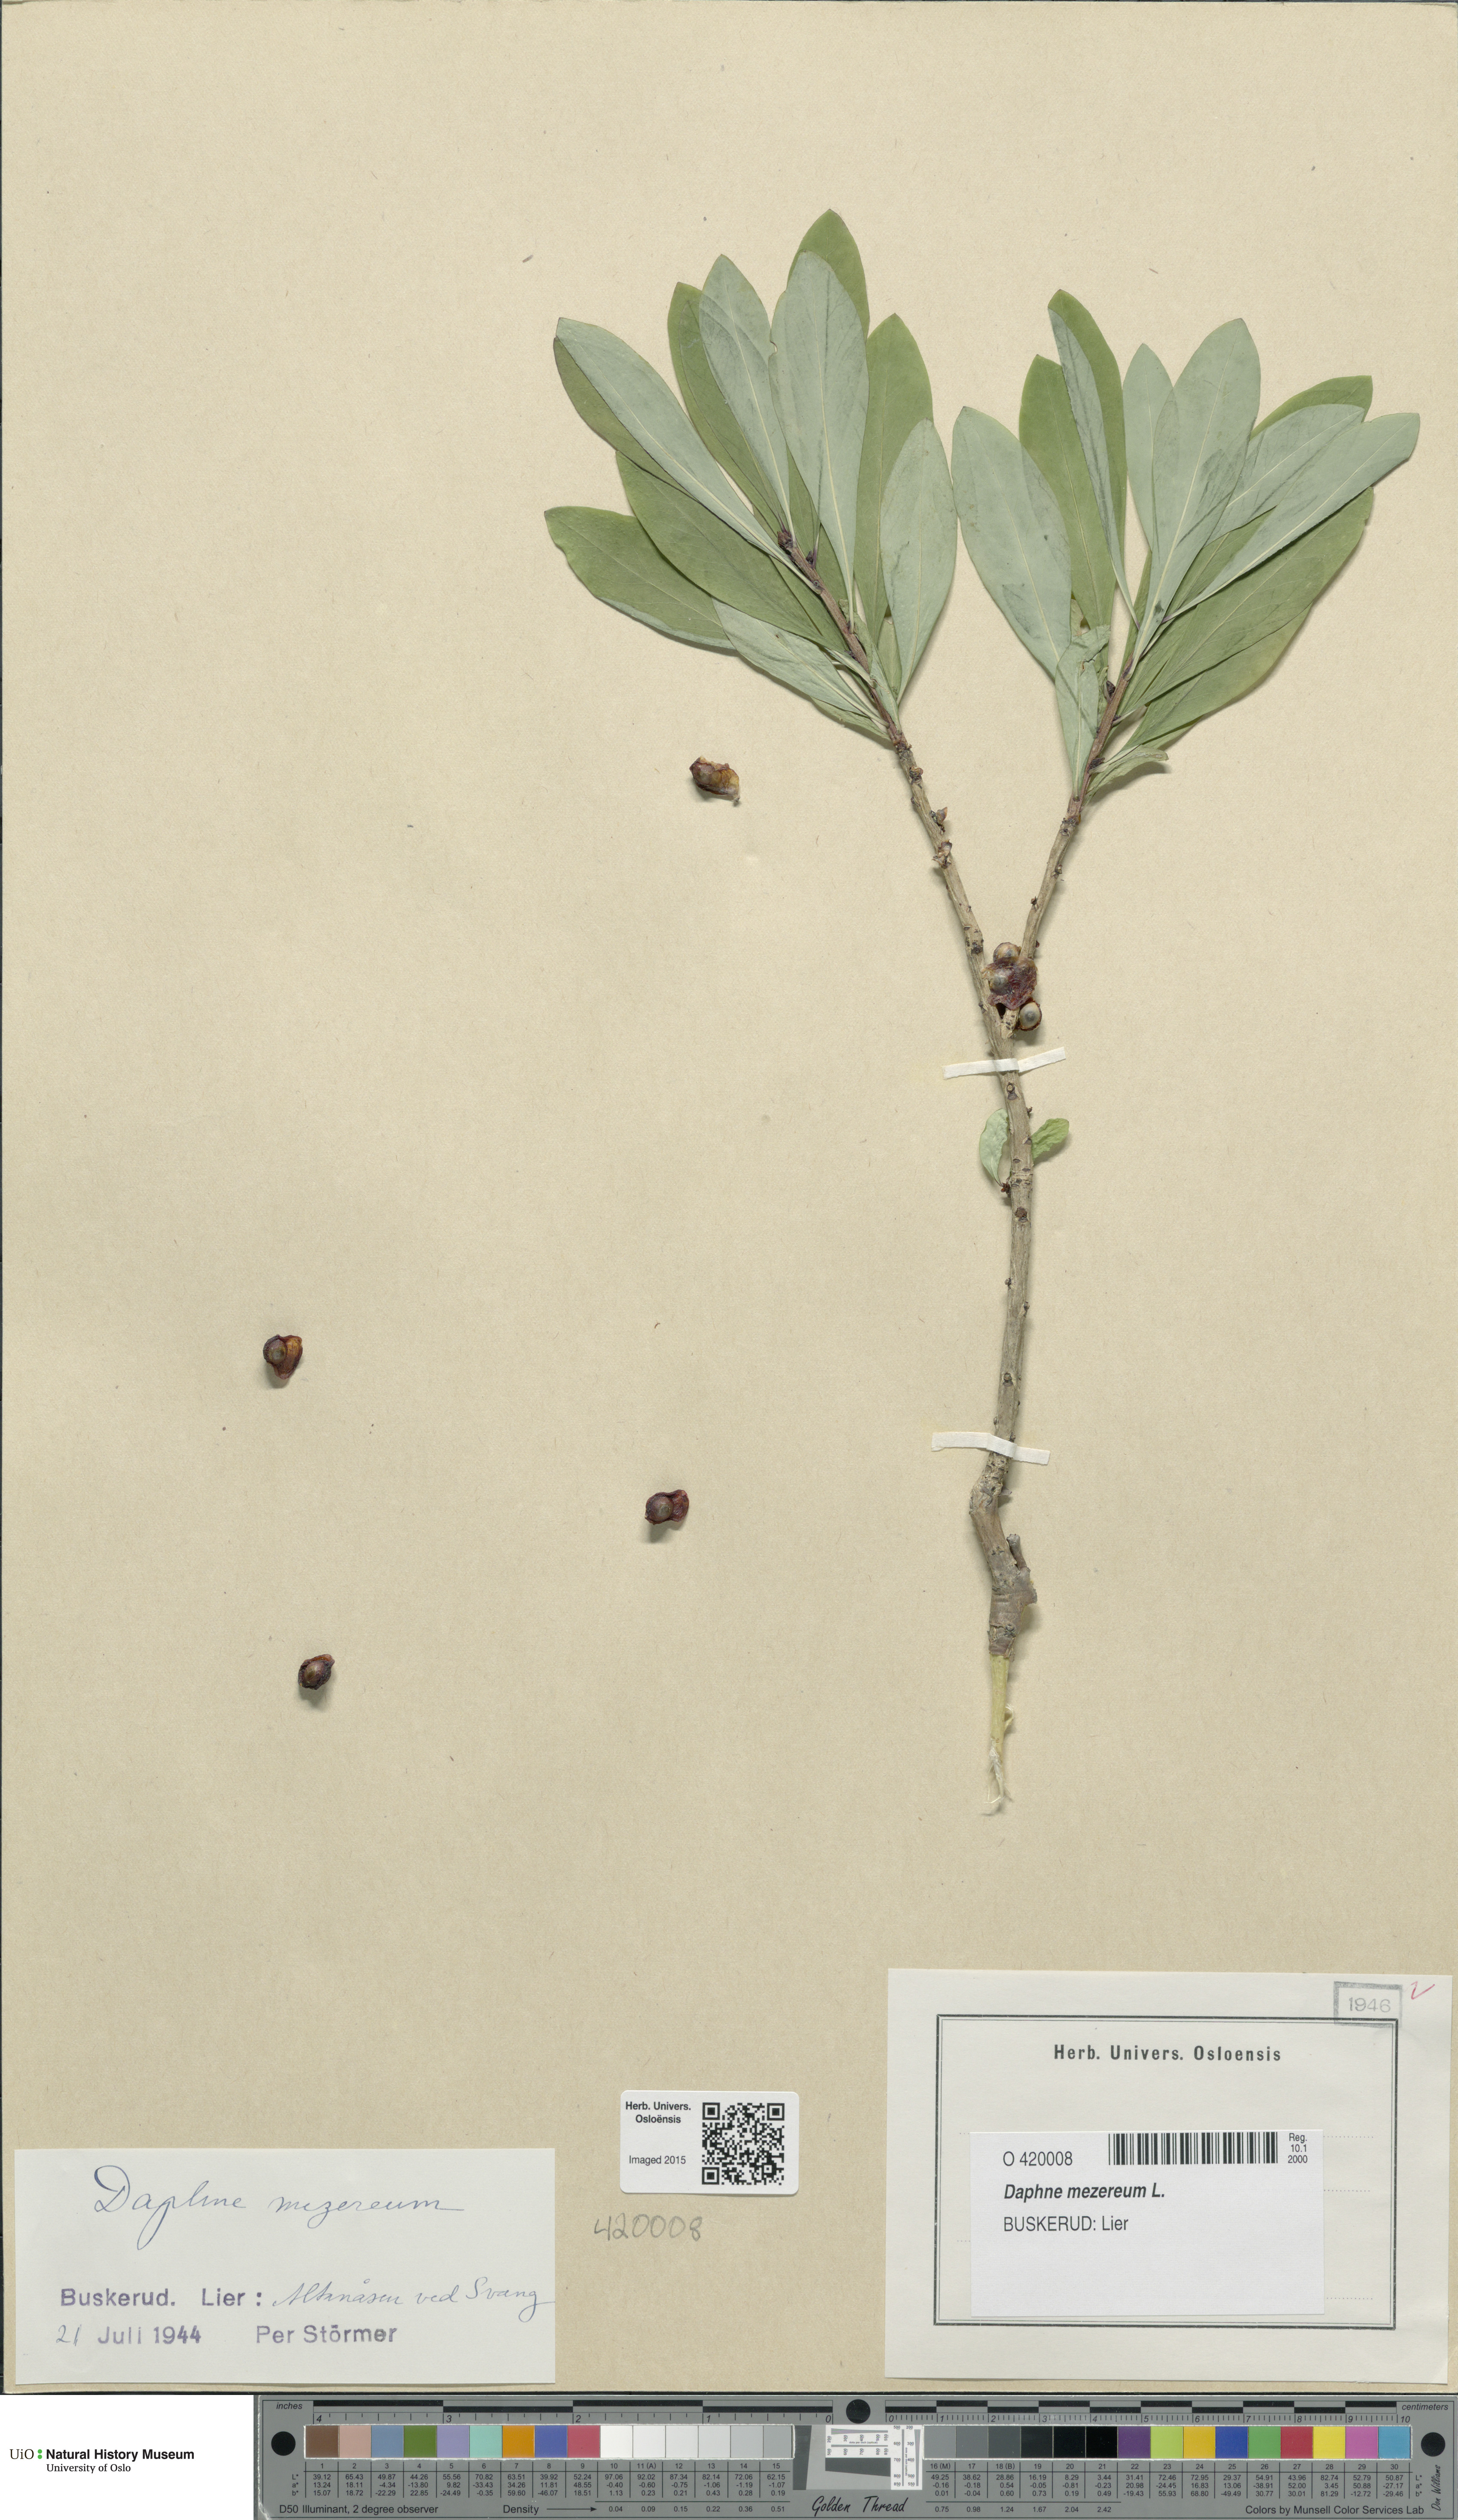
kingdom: Plantae
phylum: Tracheophyta
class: Magnoliopsida
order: Malvales
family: Thymelaeaceae
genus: Daphne
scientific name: Daphne mezereum
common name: Mezereon
